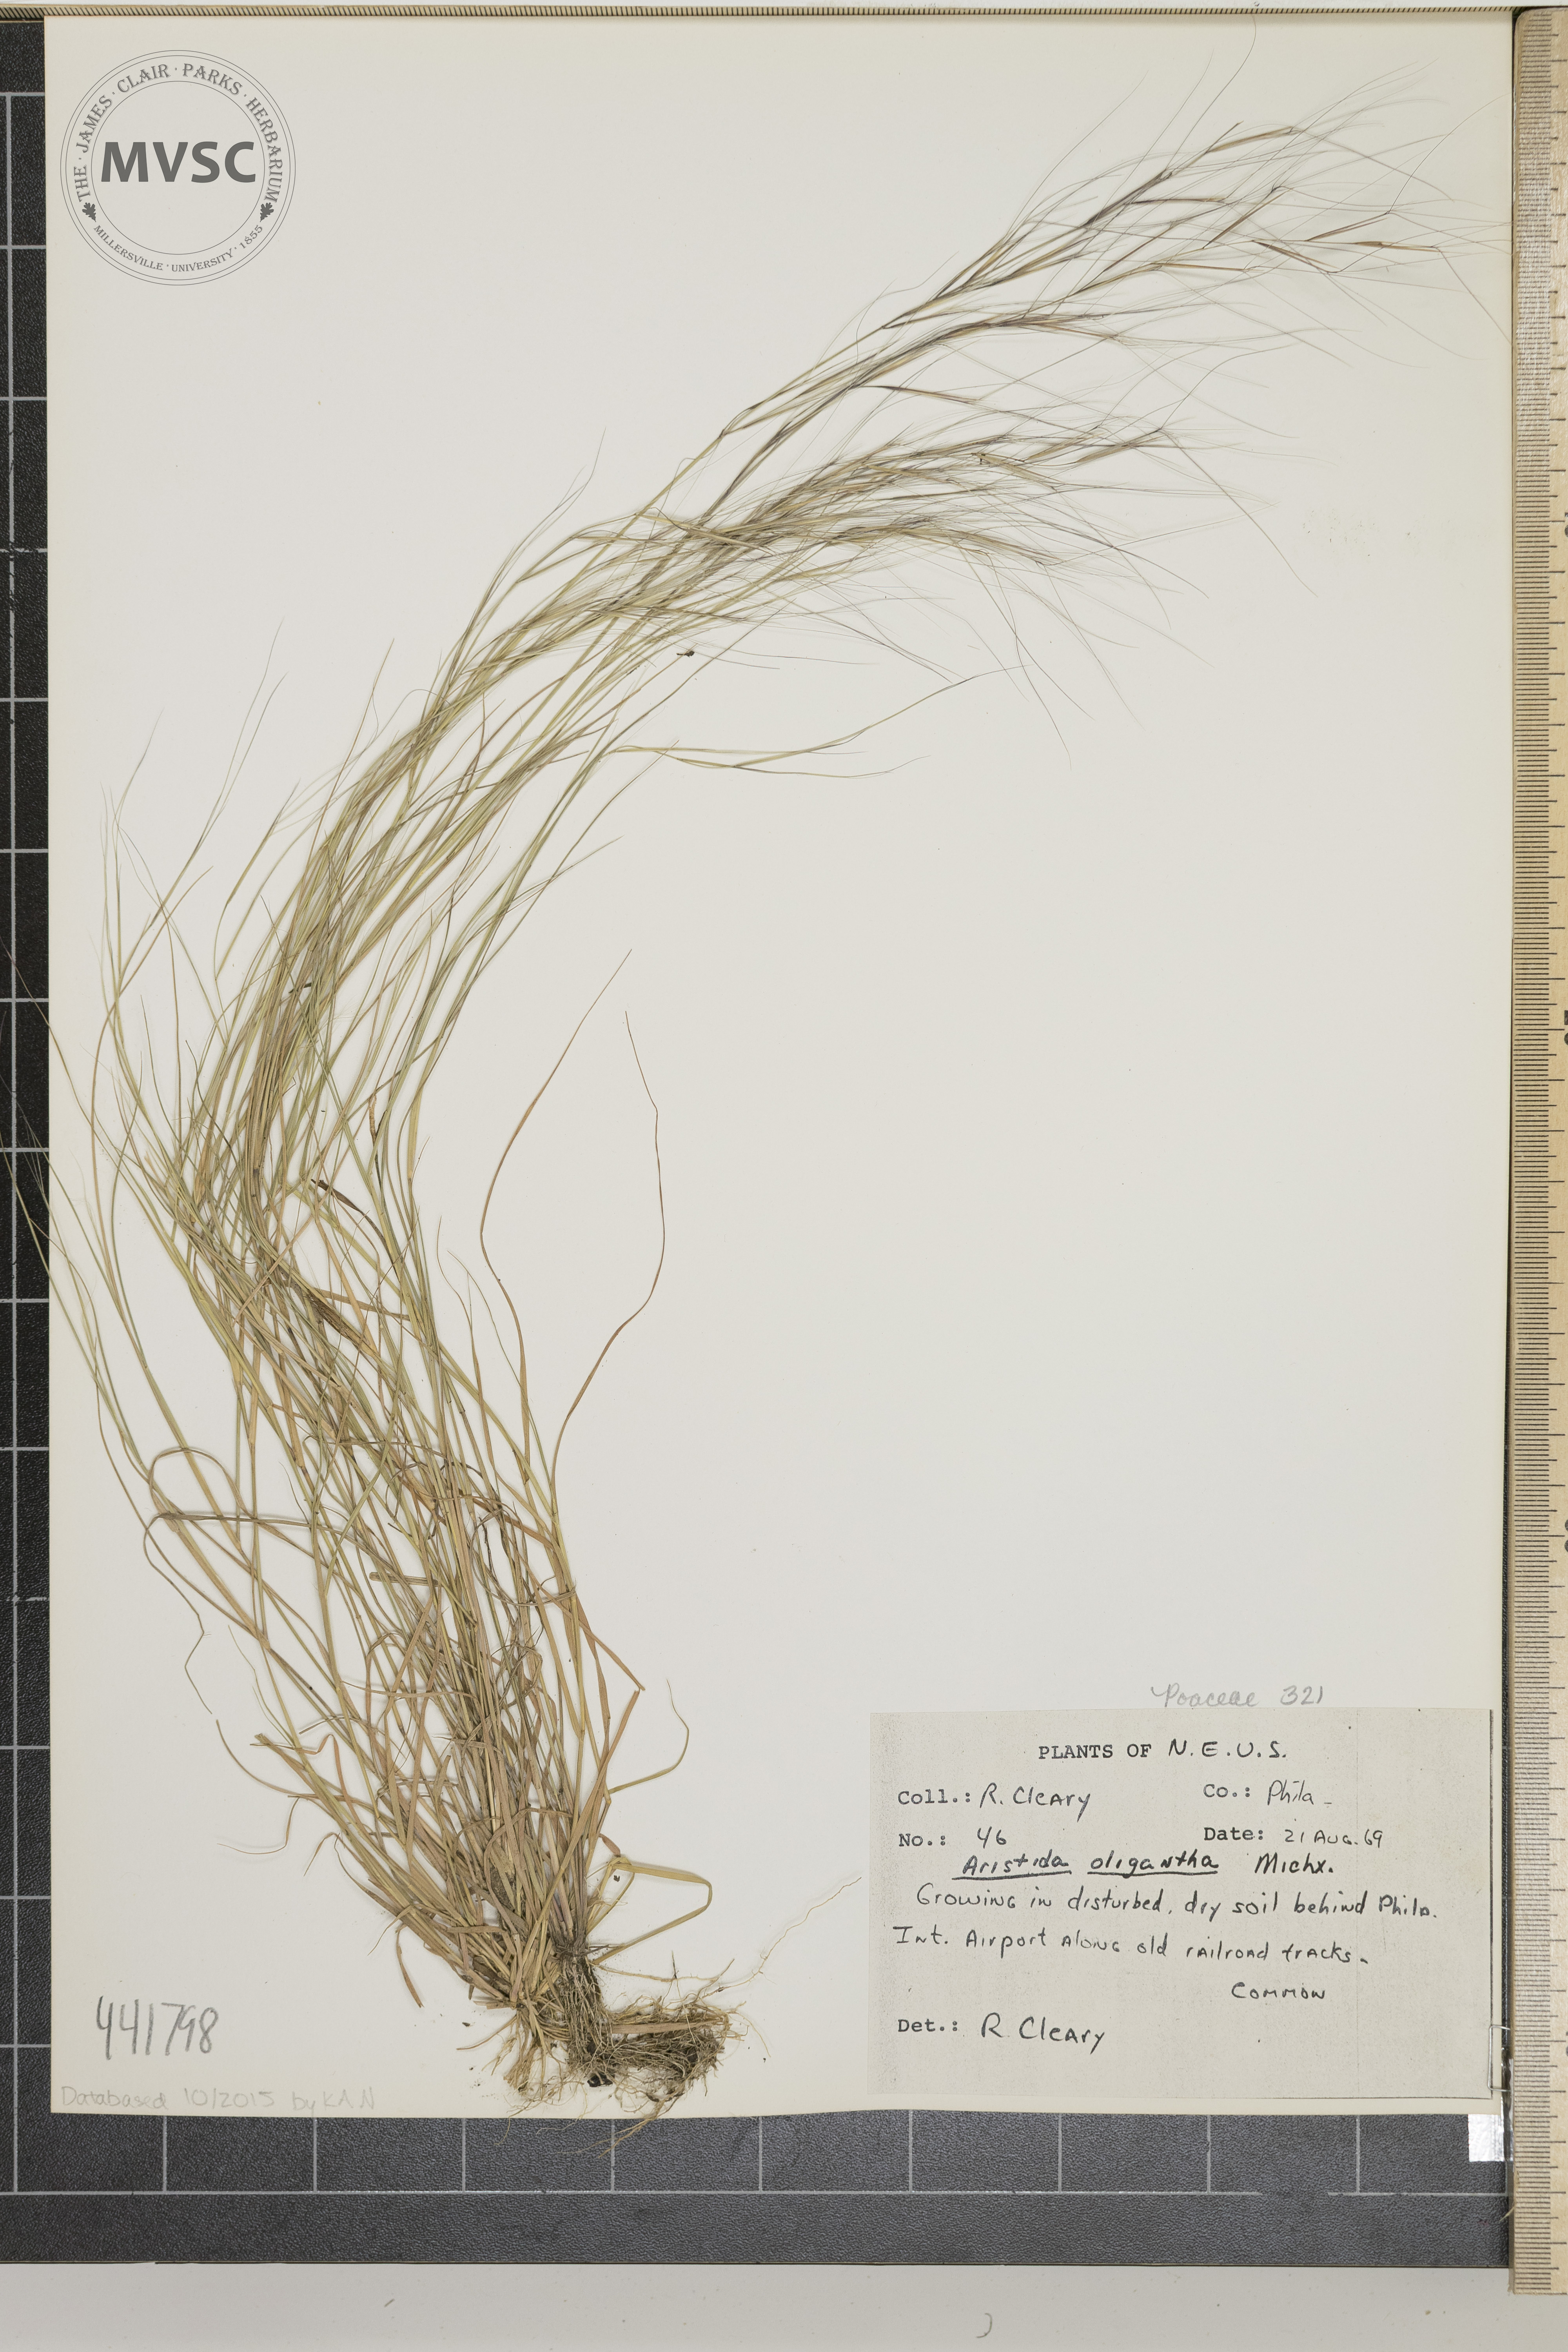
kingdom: Plantae
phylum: Tracheophyta
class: Liliopsida
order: Poales
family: Poaceae
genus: Aristida
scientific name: Aristida oligantha
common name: Few-flowered aristida
